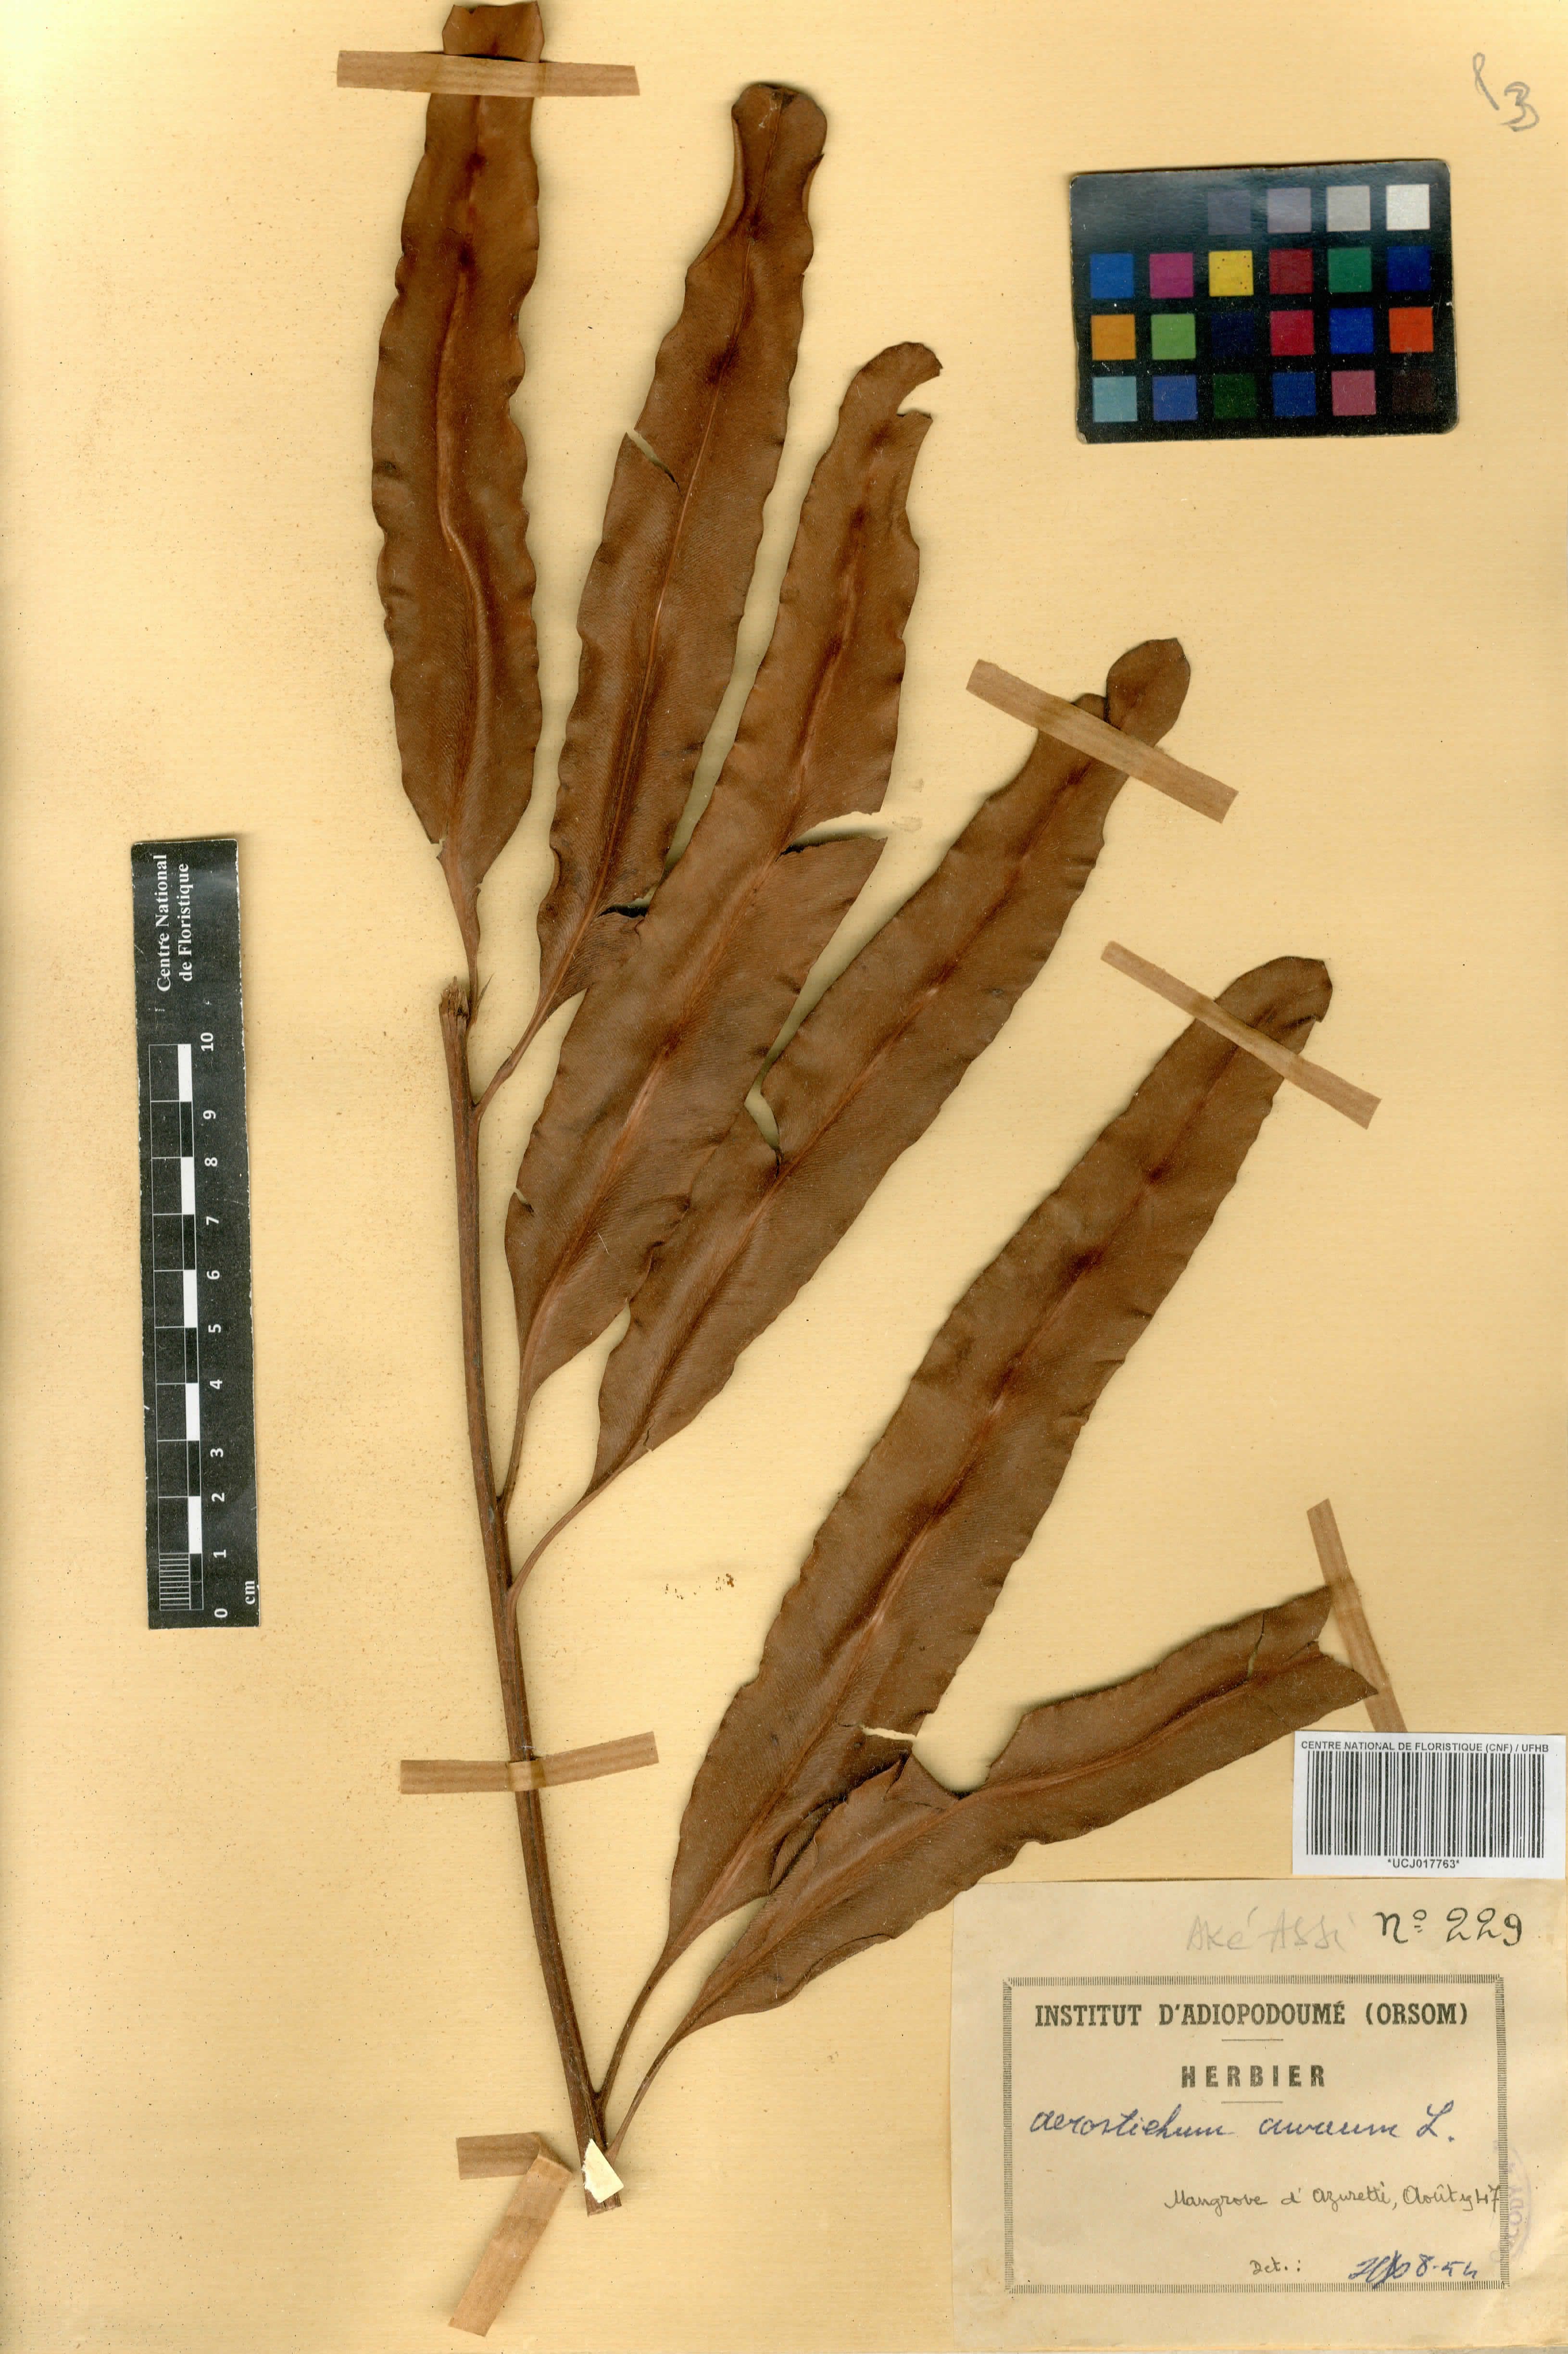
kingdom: Plantae
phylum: Tracheophyta
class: Polypodiopsida
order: Polypodiales
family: Pteridaceae
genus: Acrostichum
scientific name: Acrostichum aureum
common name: Leather fern
